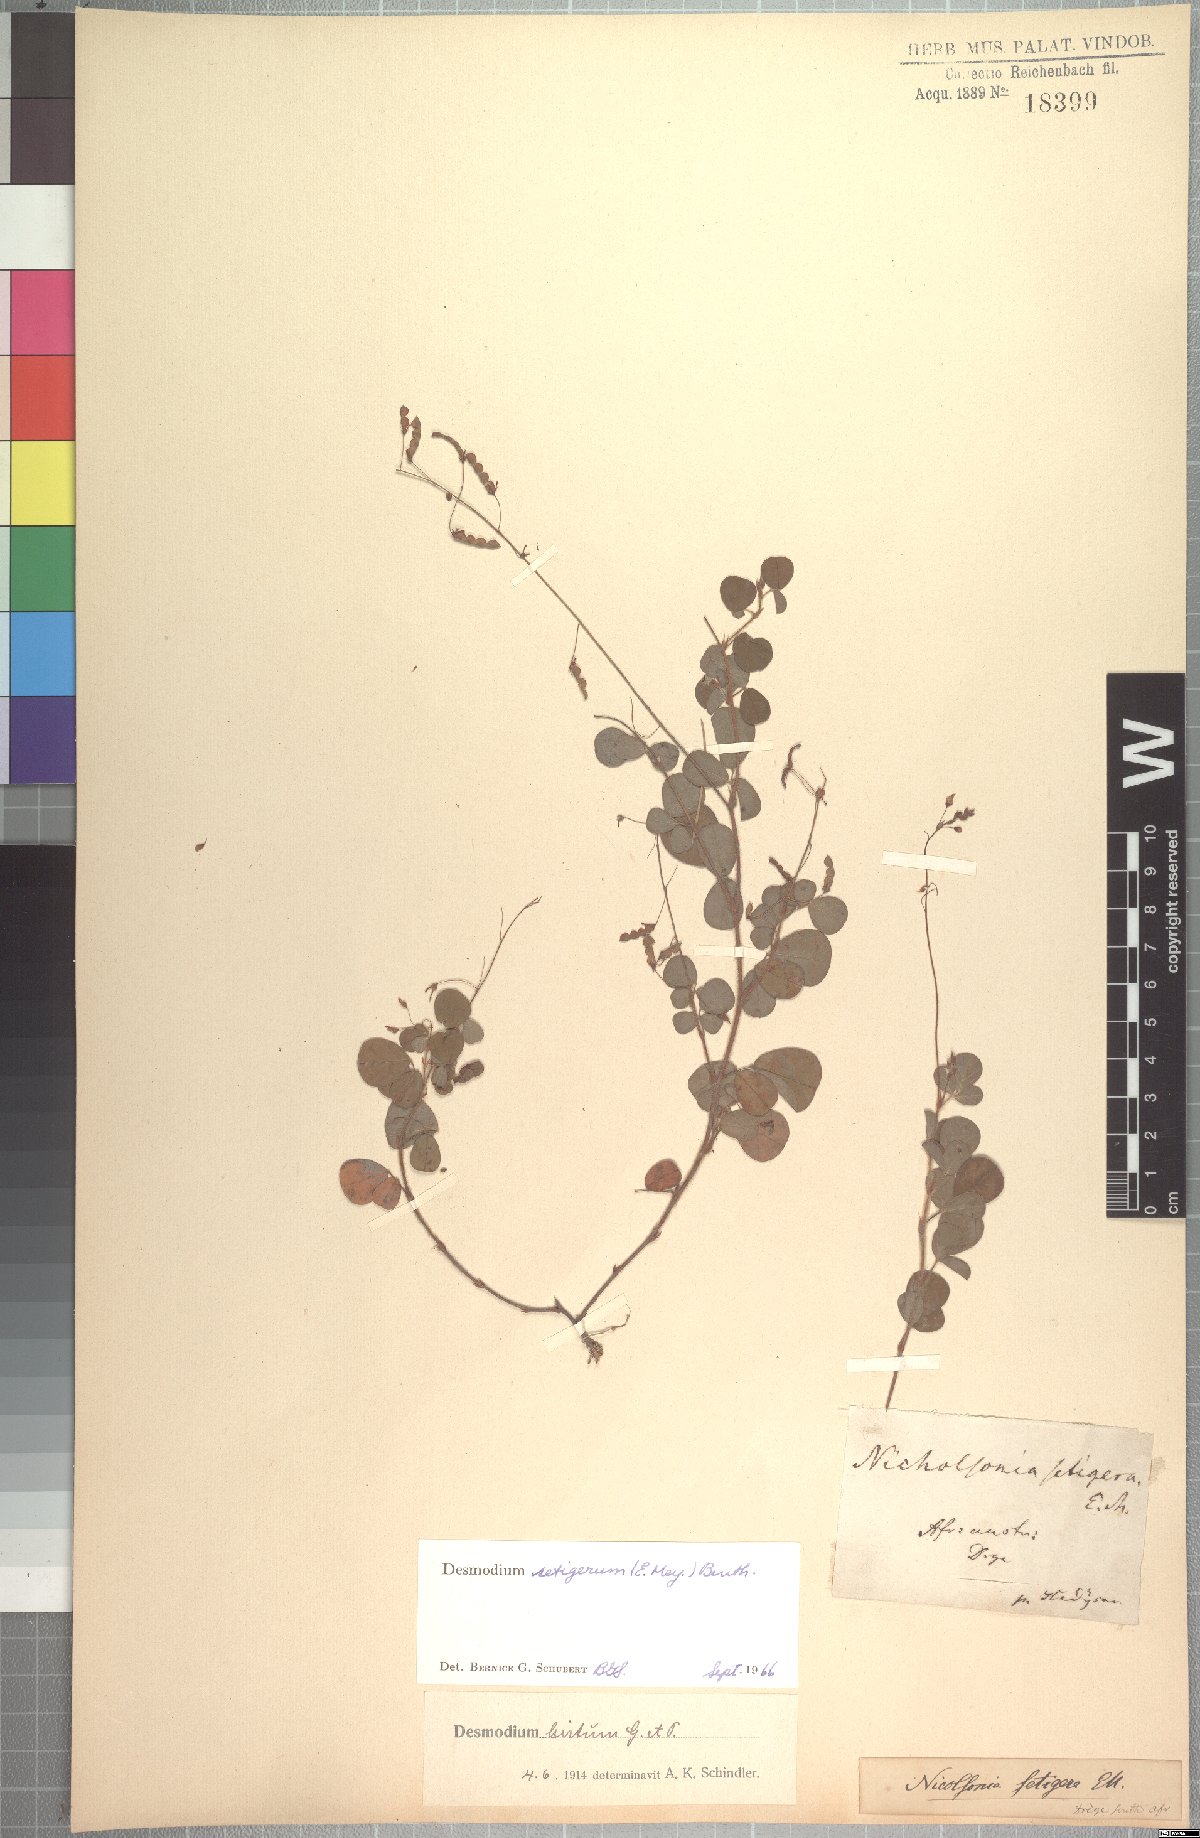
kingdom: Plantae
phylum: Tracheophyta
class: Magnoliopsida
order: Fabales
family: Fabaceae
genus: Grona
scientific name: Grona setigera
